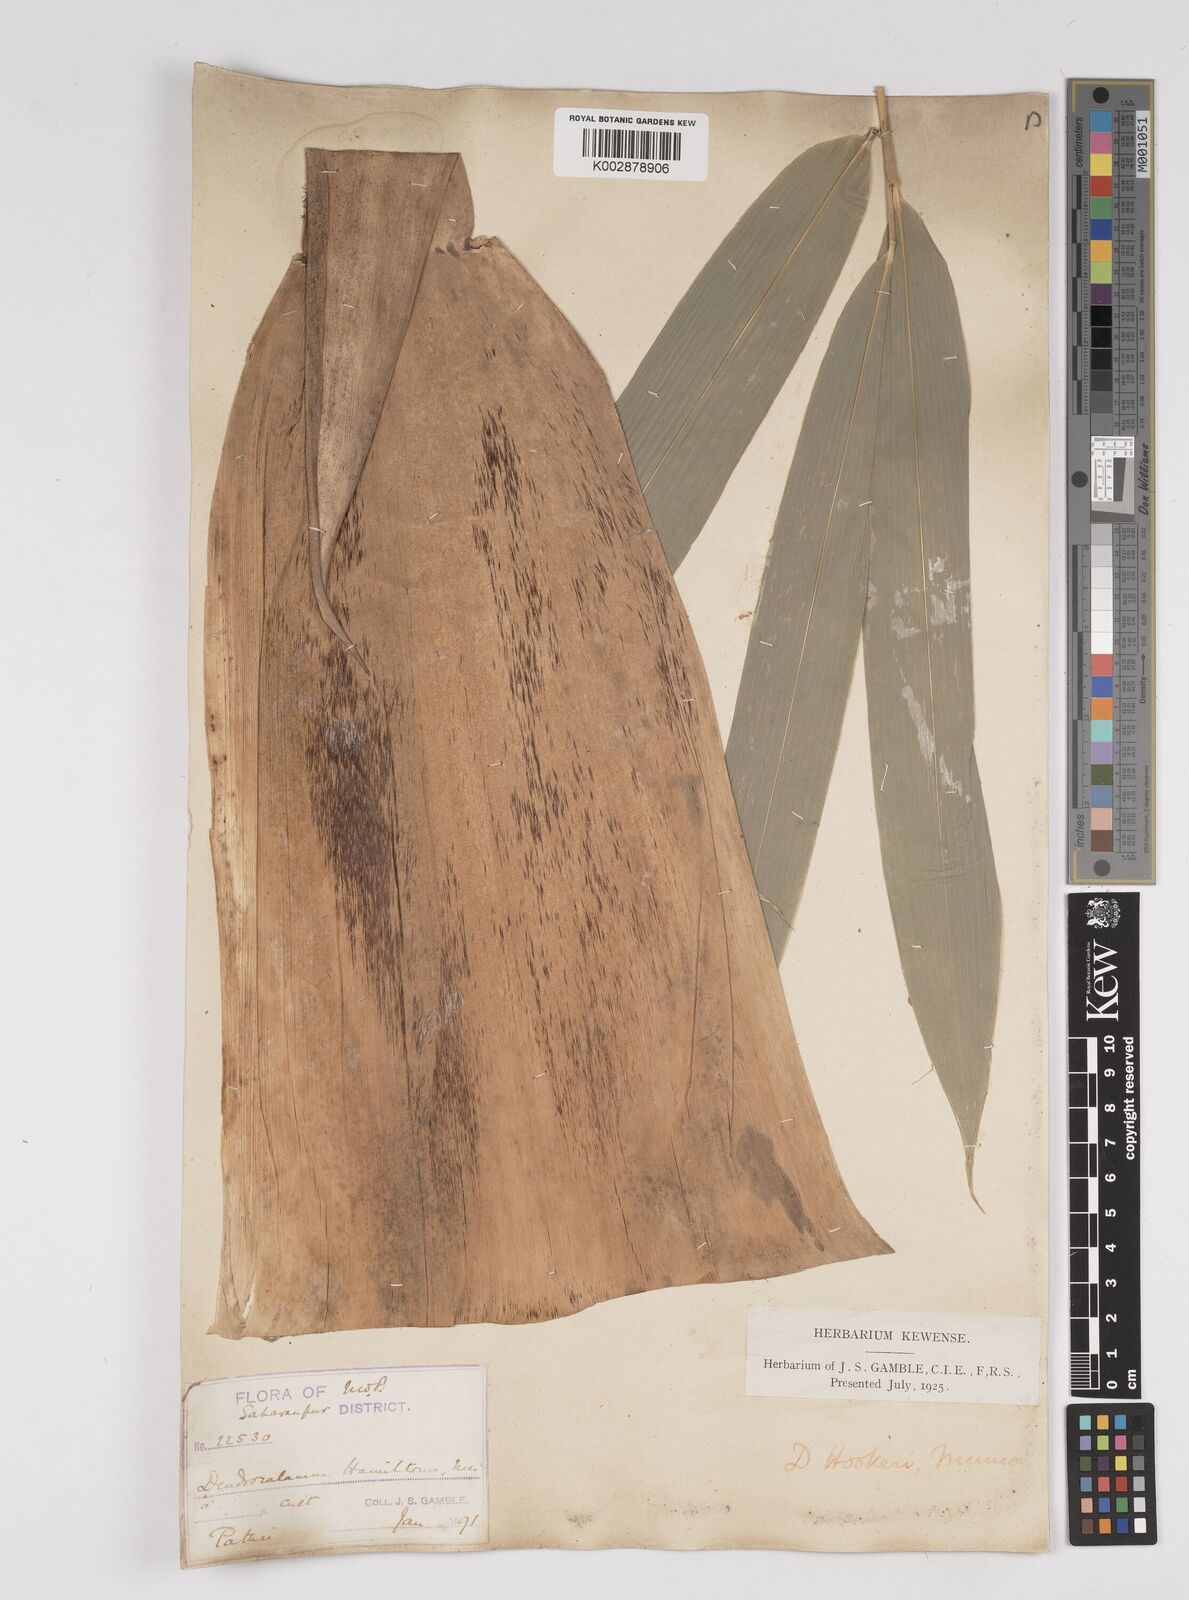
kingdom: Plantae
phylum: Tracheophyta
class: Liliopsida
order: Poales
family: Poaceae
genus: Dendrocalamus
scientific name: Dendrocalamus hookeri
